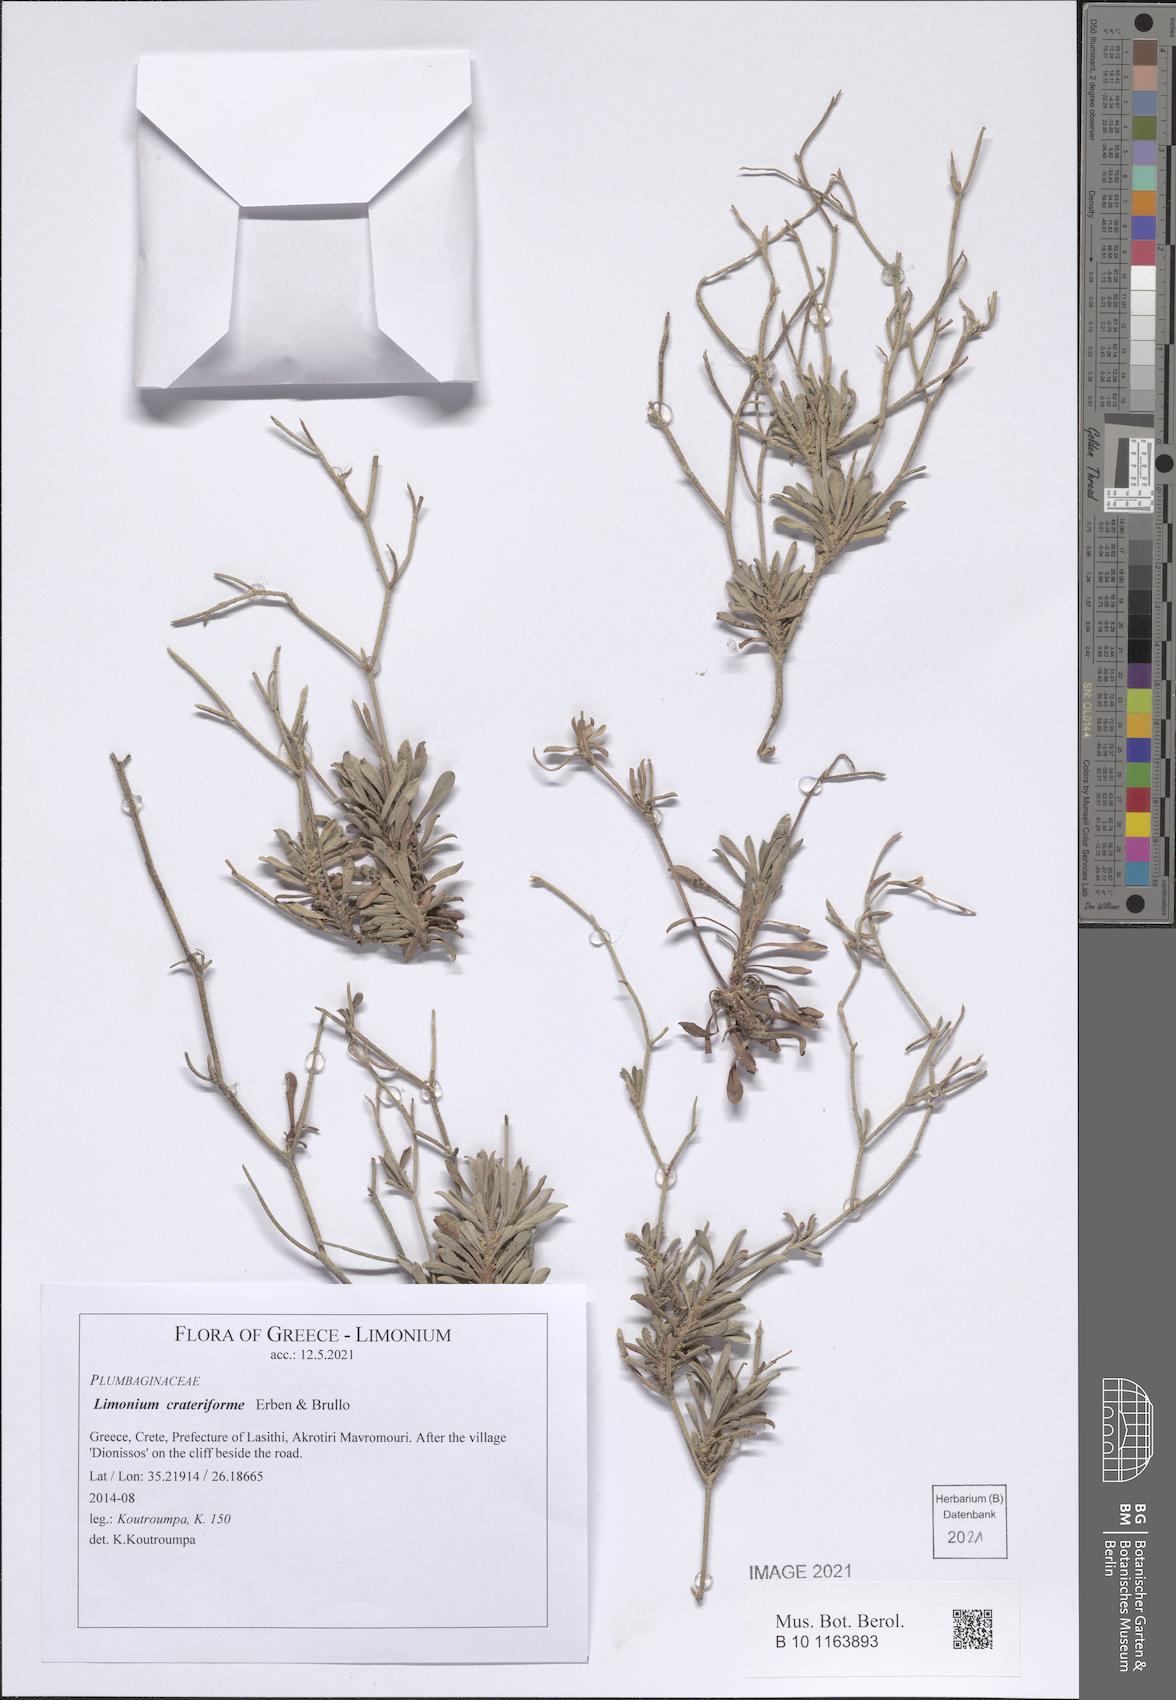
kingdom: Plantae
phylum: Tracheophyta
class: Magnoliopsida
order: Caryophyllales
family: Plumbaginaceae
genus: Limonium
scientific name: Limonium crateriforme
